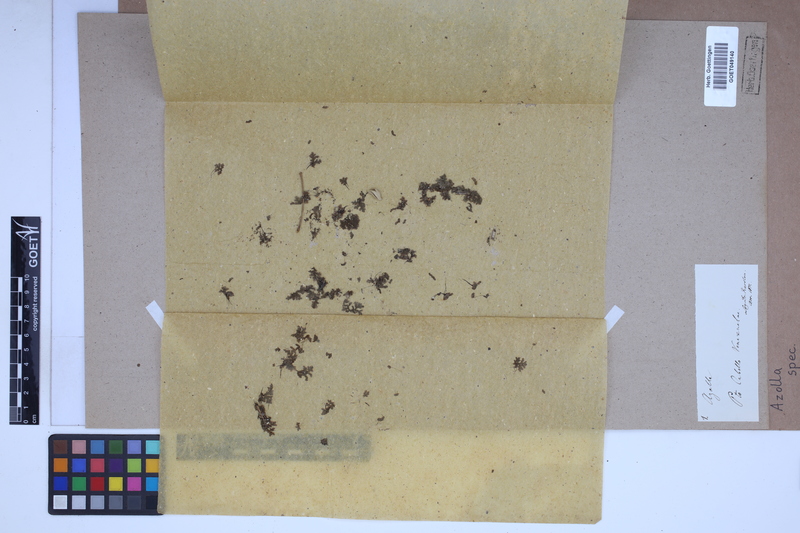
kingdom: Plantae
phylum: Tracheophyta
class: Polypodiopsida
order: Salviniales
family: Salviniaceae
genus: Azolla
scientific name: Azolla
